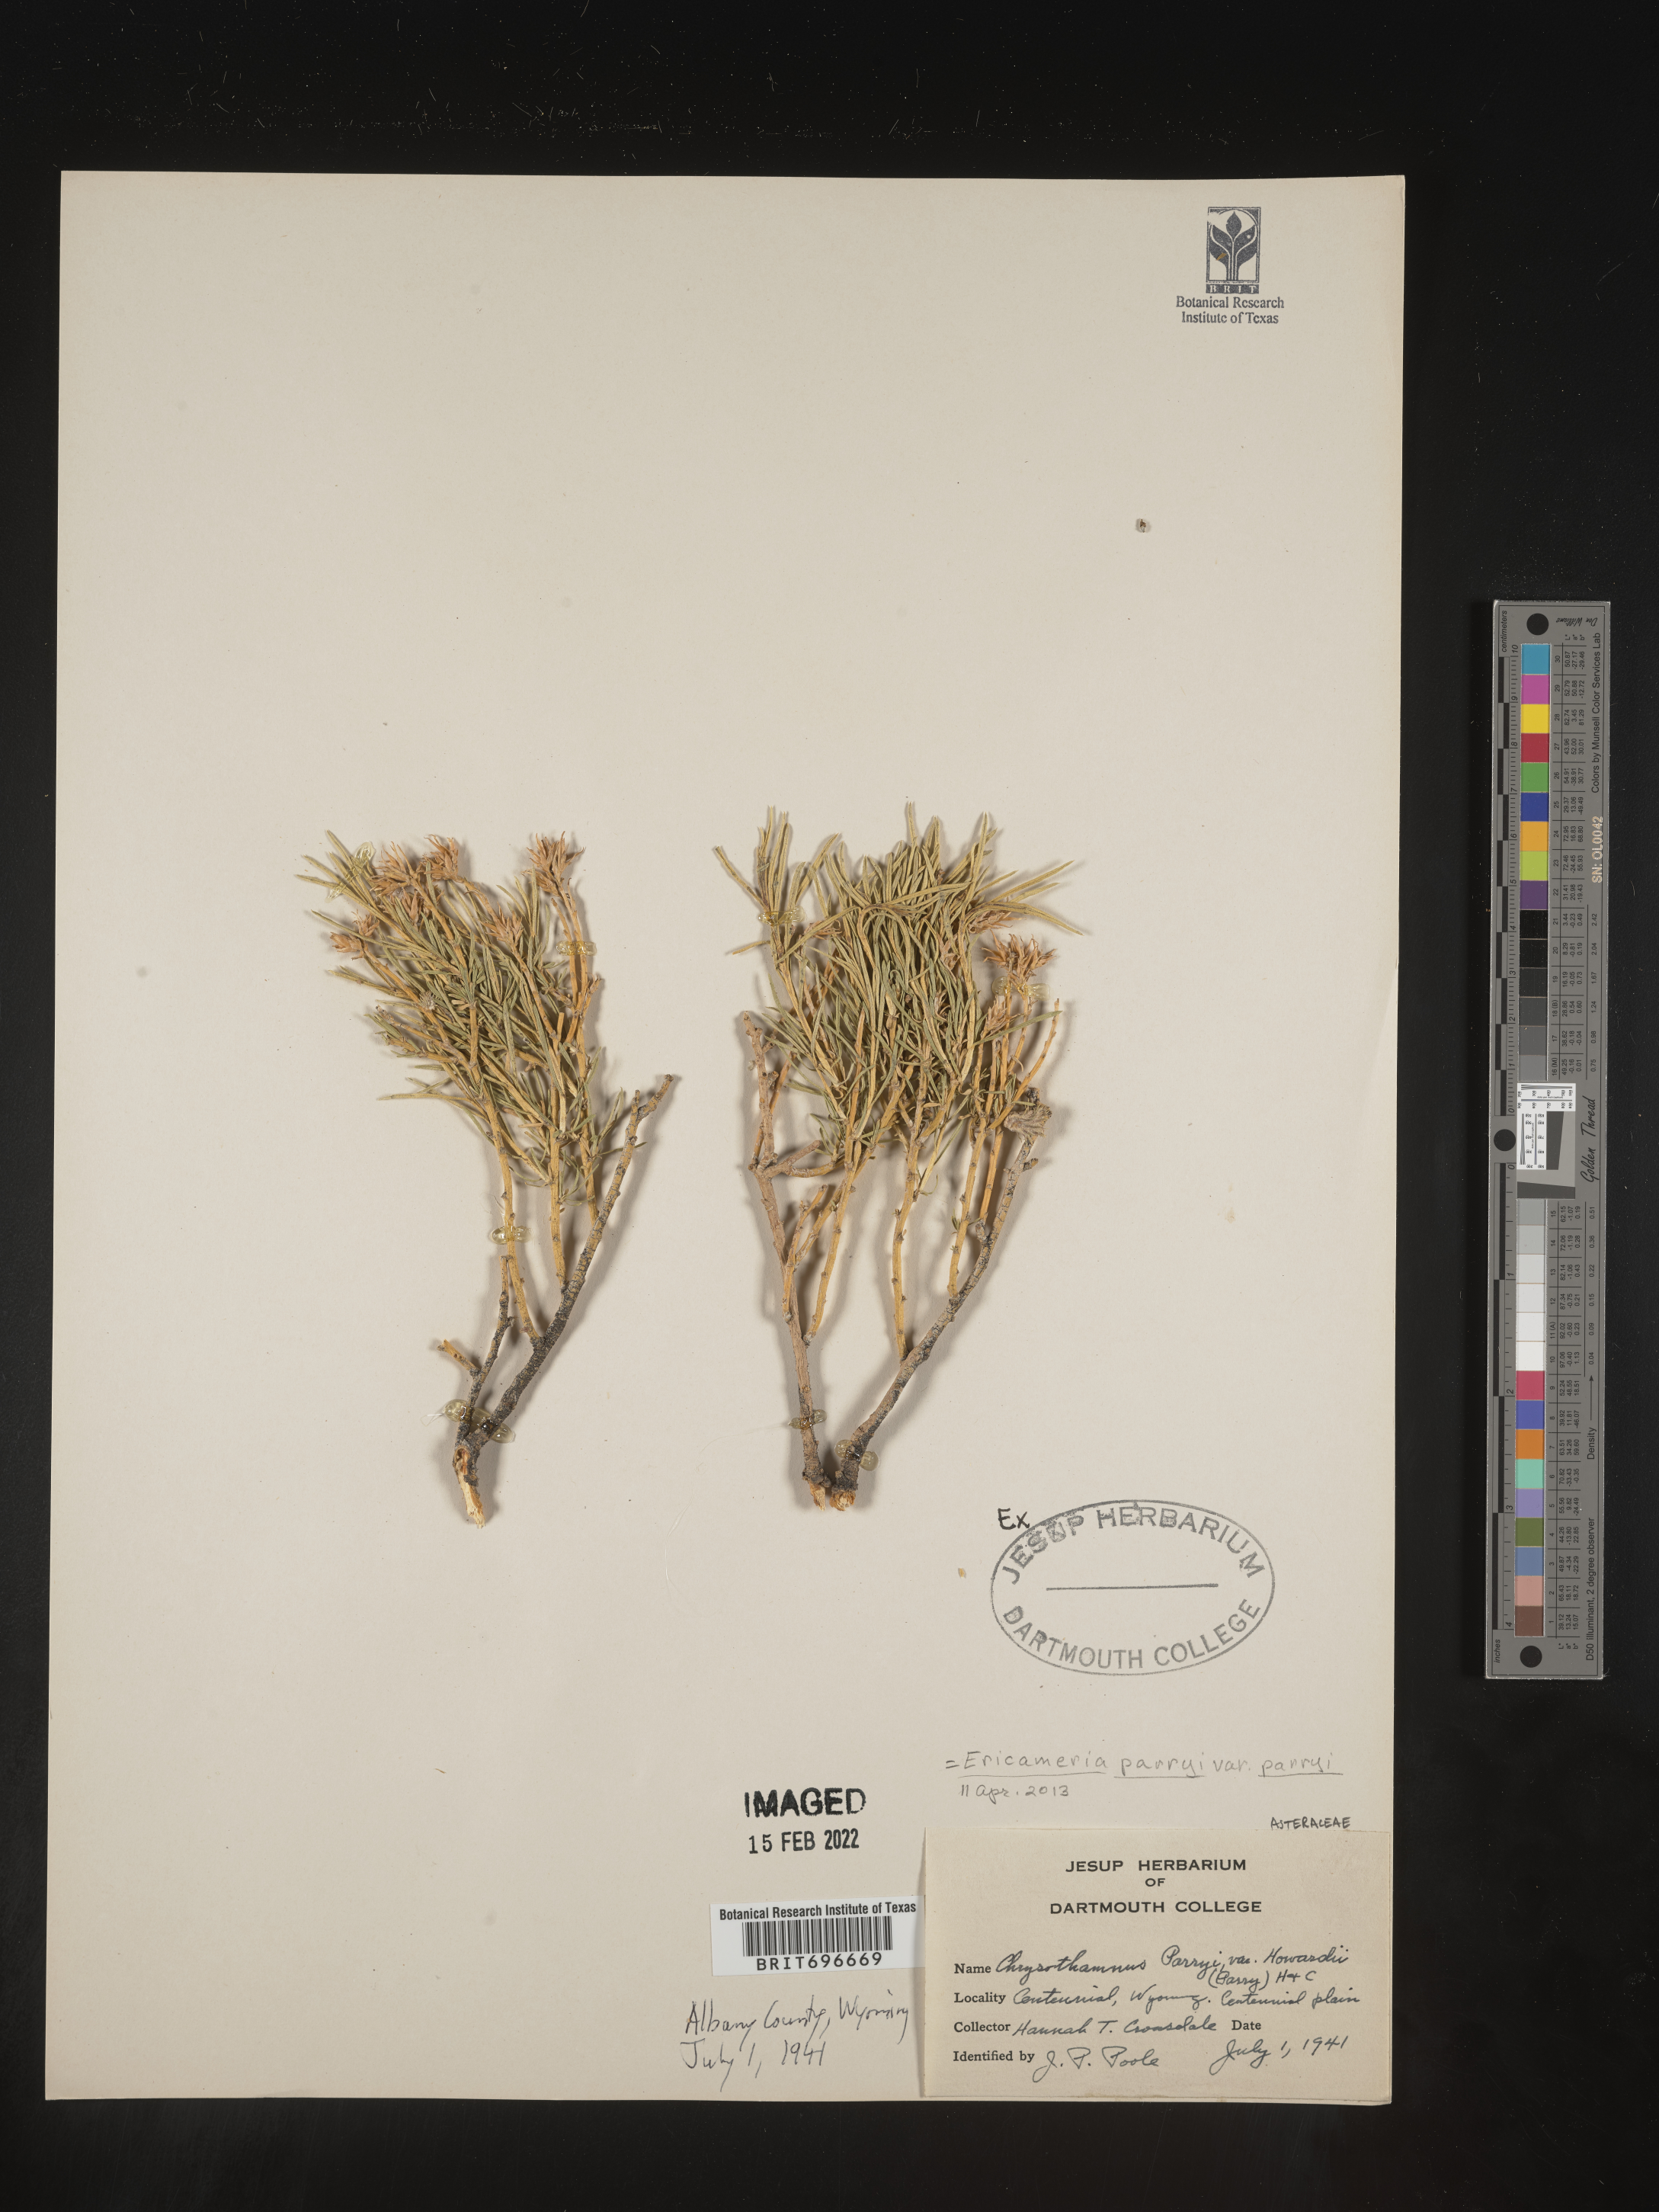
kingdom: Plantae
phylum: Tracheophyta
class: Magnoliopsida
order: Asterales
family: Asteraceae
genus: Ericameria
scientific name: Ericameria parryi
